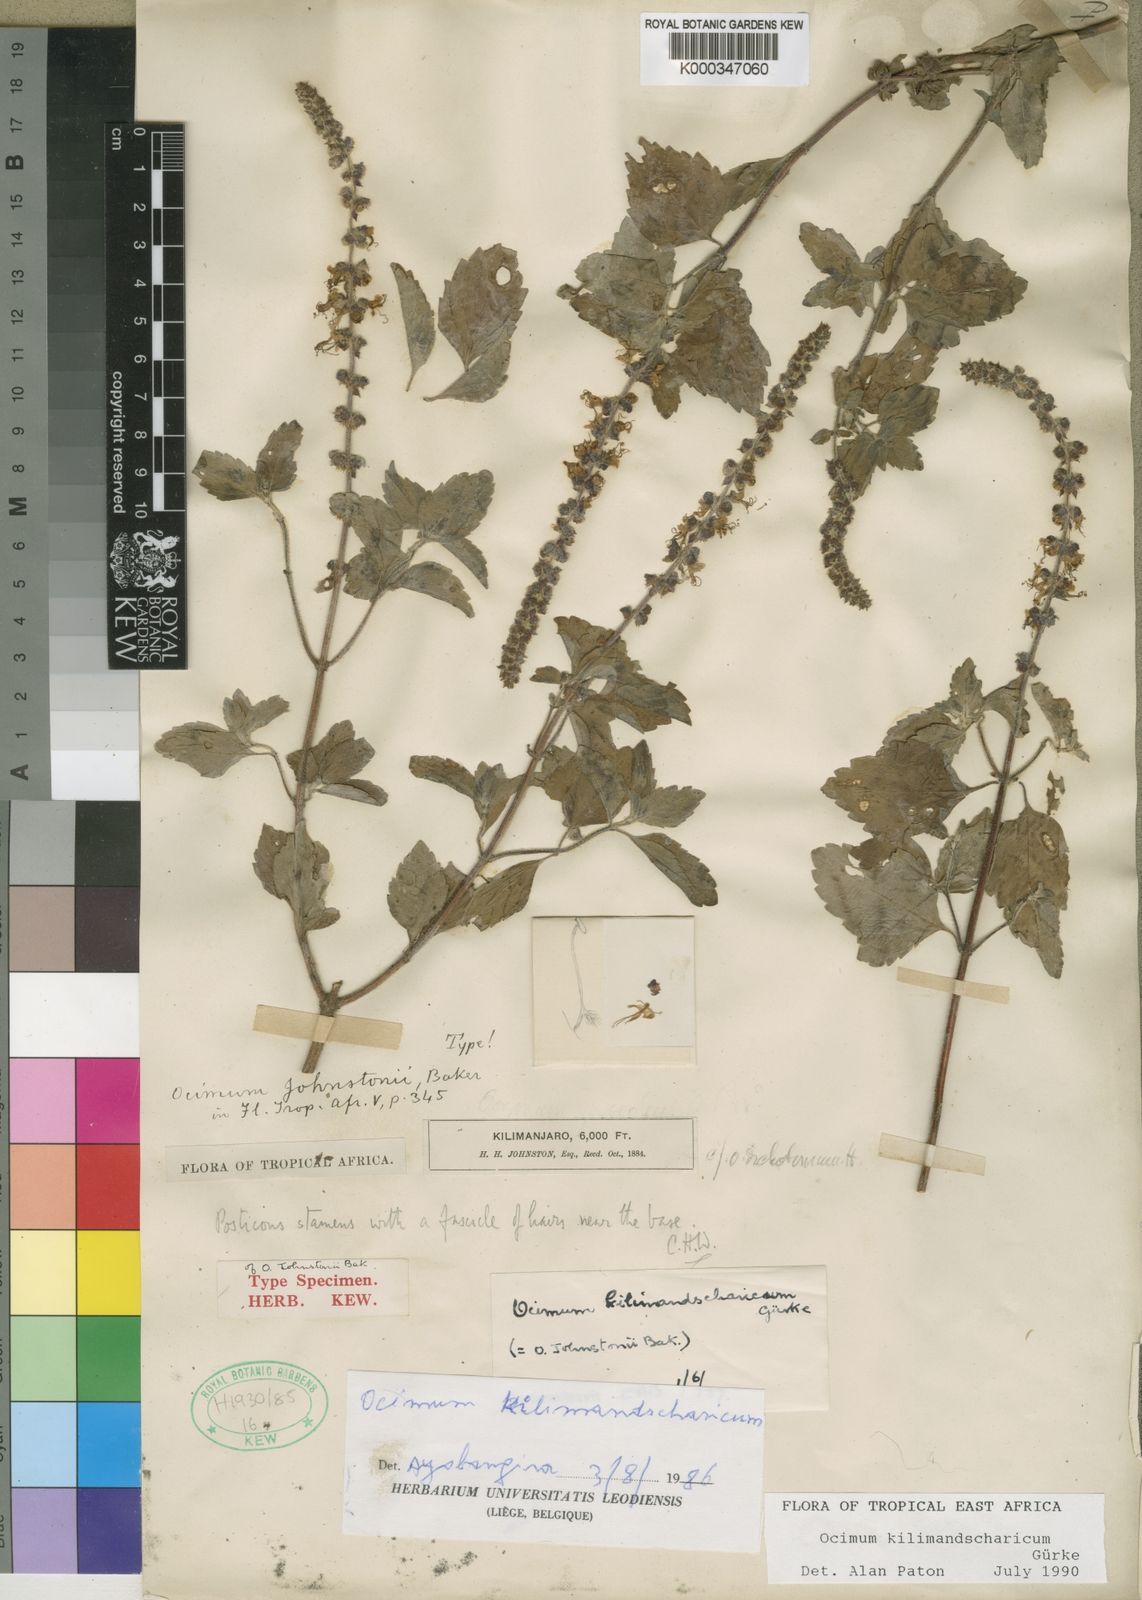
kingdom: Plantae
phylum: Tracheophyta
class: Magnoliopsida
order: Lamiales
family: Lamiaceae
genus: Ocimum
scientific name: Ocimum
